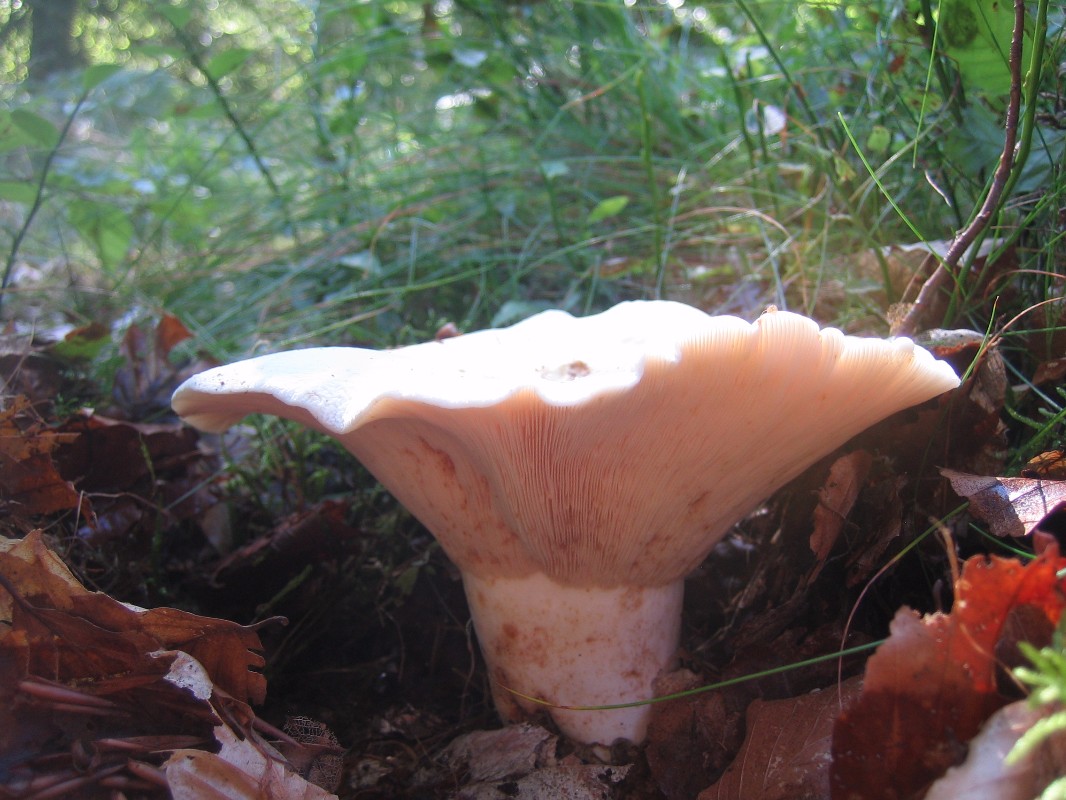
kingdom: Fungi
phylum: Basidiomycota
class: Agaricomycetes
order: Russulales
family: Russulaceae
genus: Lactifluus
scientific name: Lactifluus piperatus
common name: peber-mælkehat
